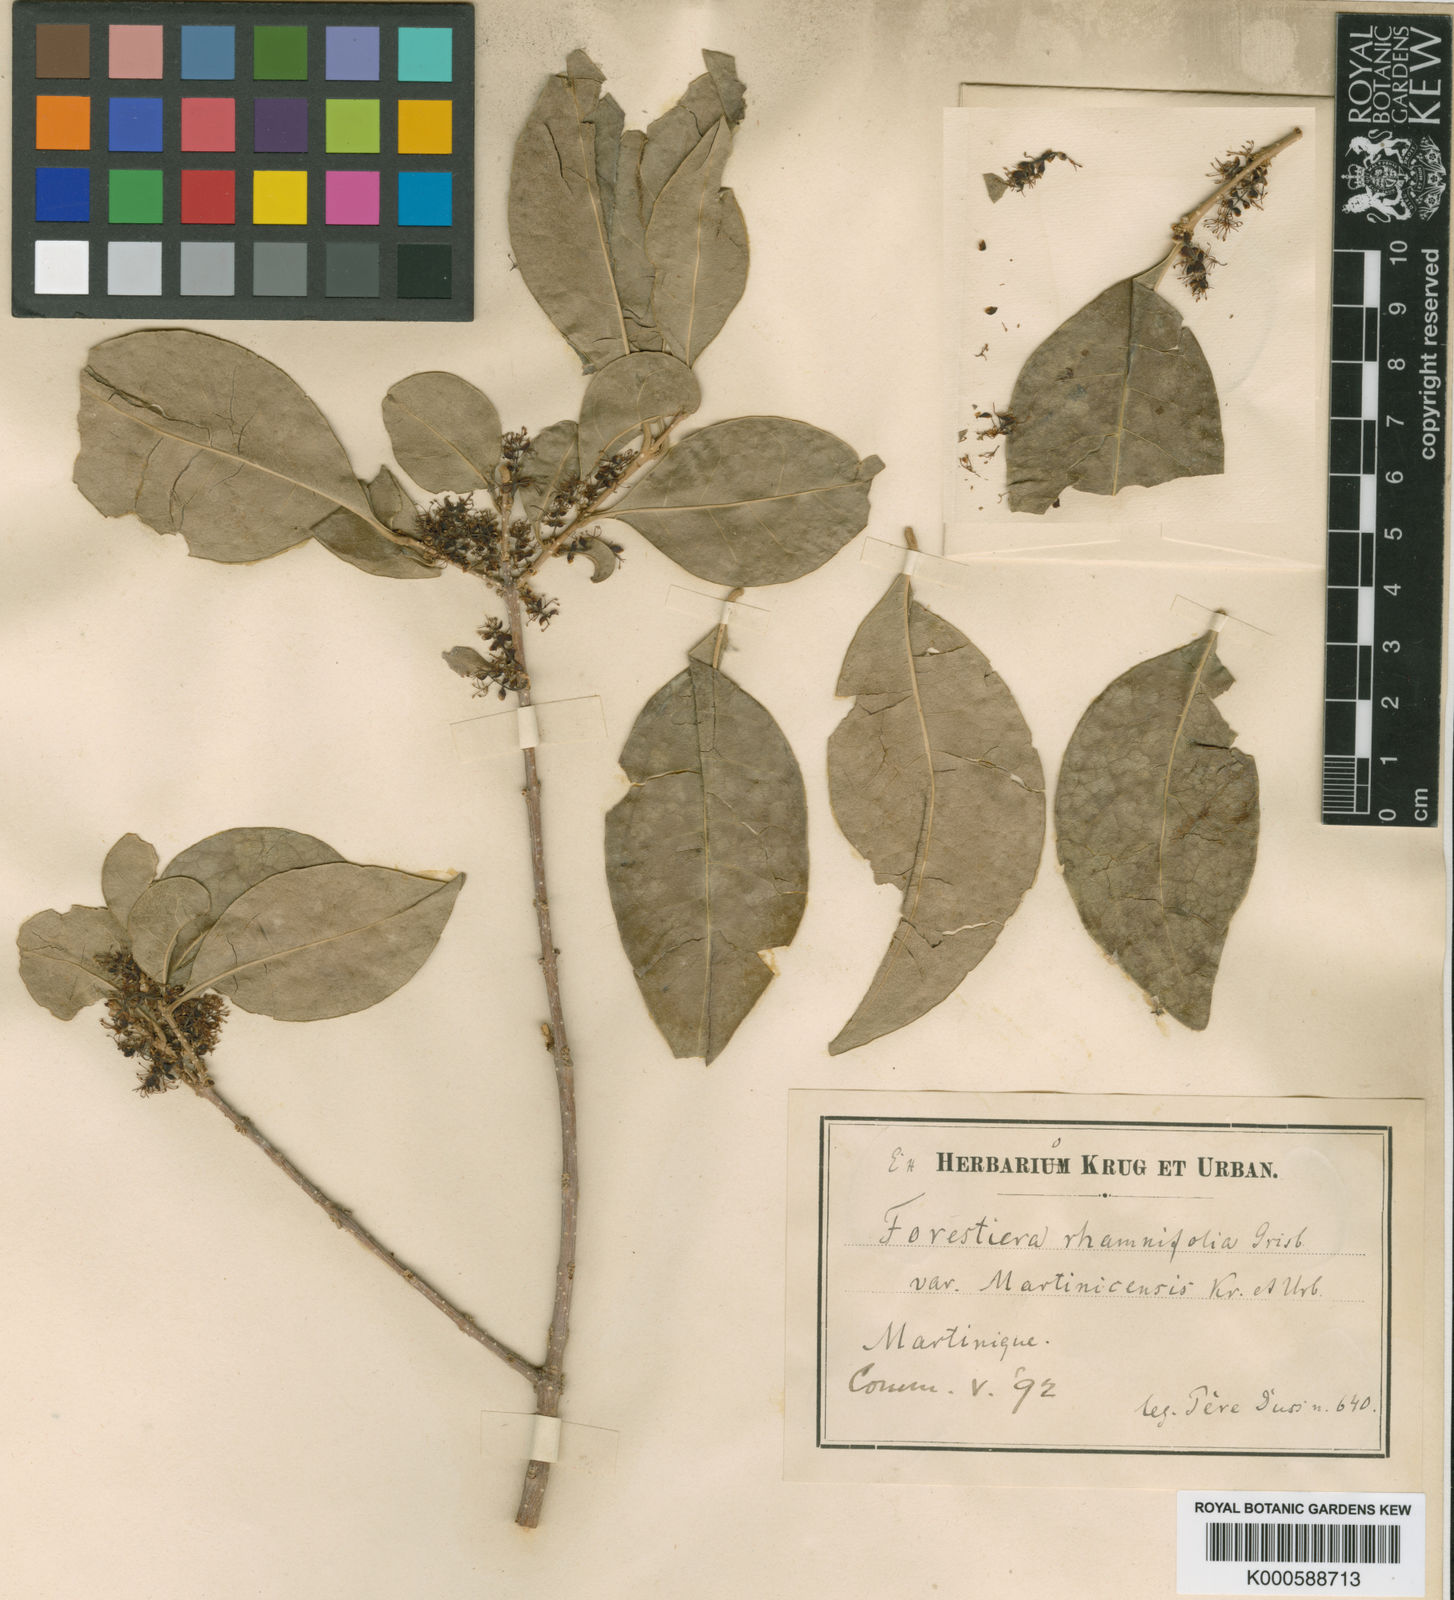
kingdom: Plantae
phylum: Tracheophyta
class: Magnoliopsida
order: Lamiales
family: Oleaceae
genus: Forestiera
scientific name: Forestiera rhamnifolia
